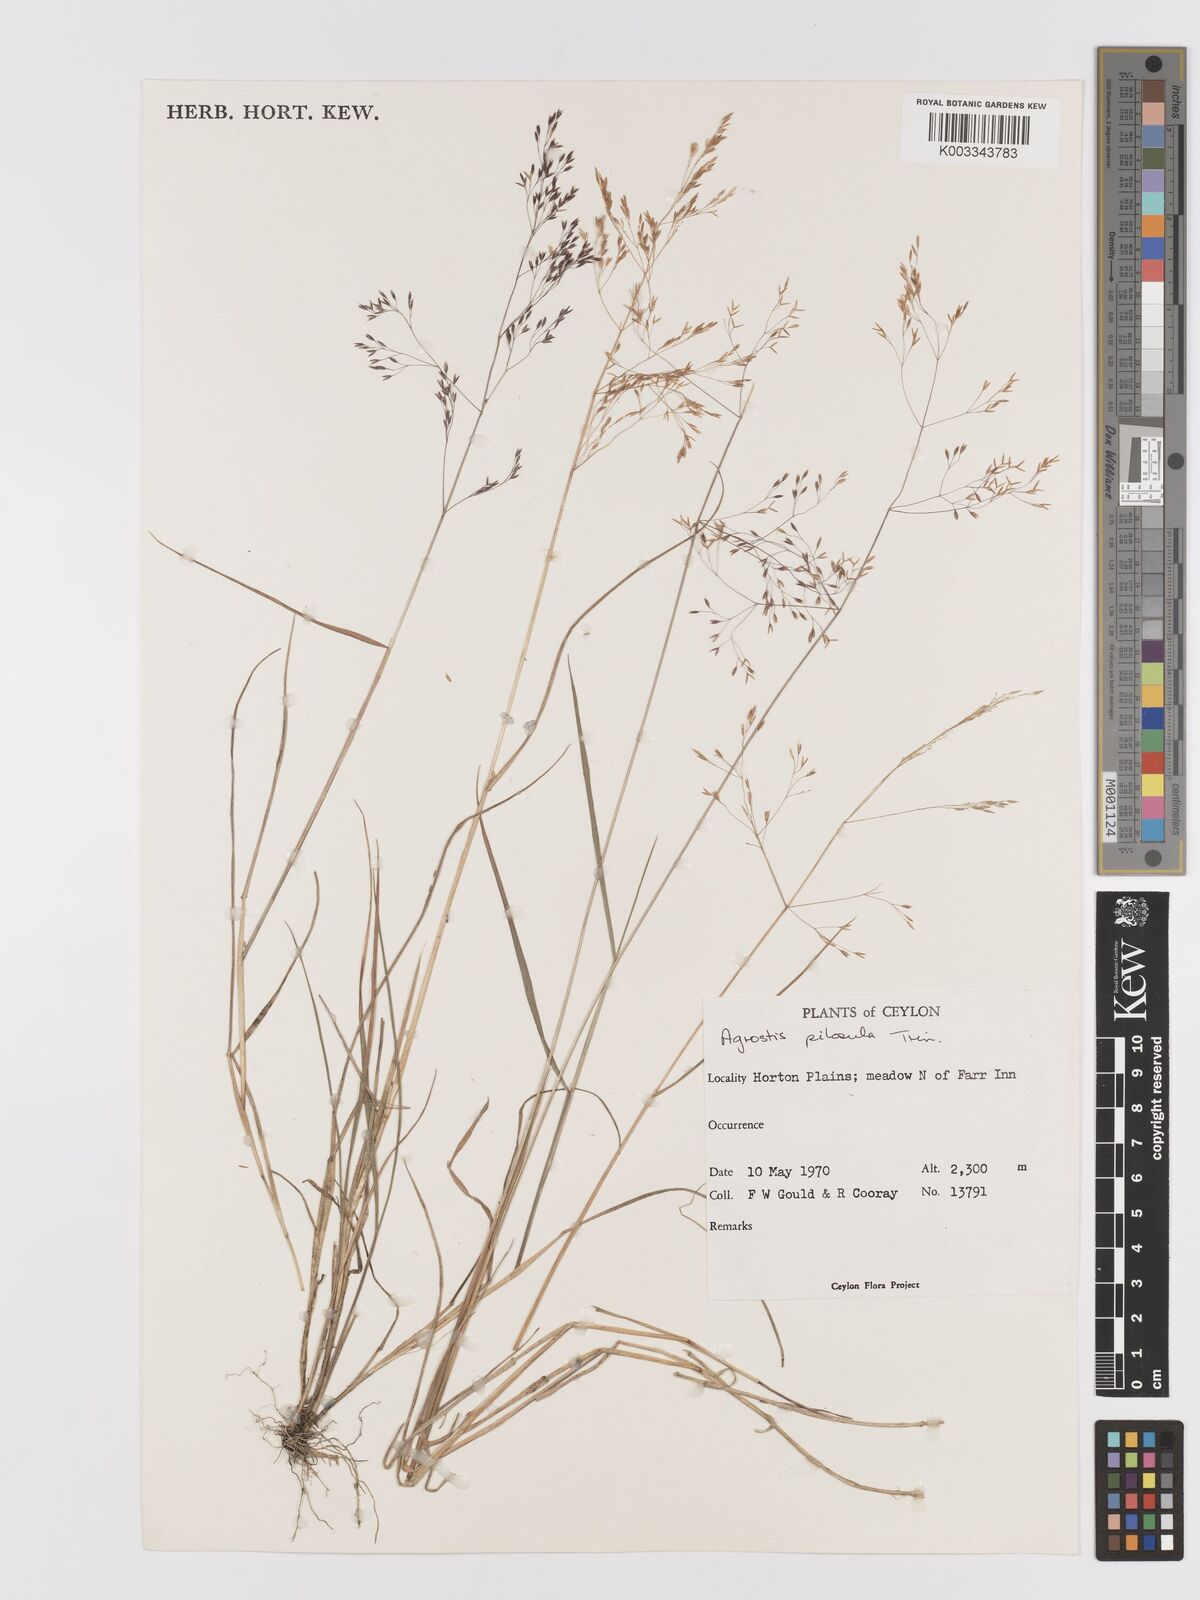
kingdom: Plantae
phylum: Tracheophyta
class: Liliopsida
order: Poales
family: Poaceae
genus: Agrostis
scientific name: Agrostis pilosula
